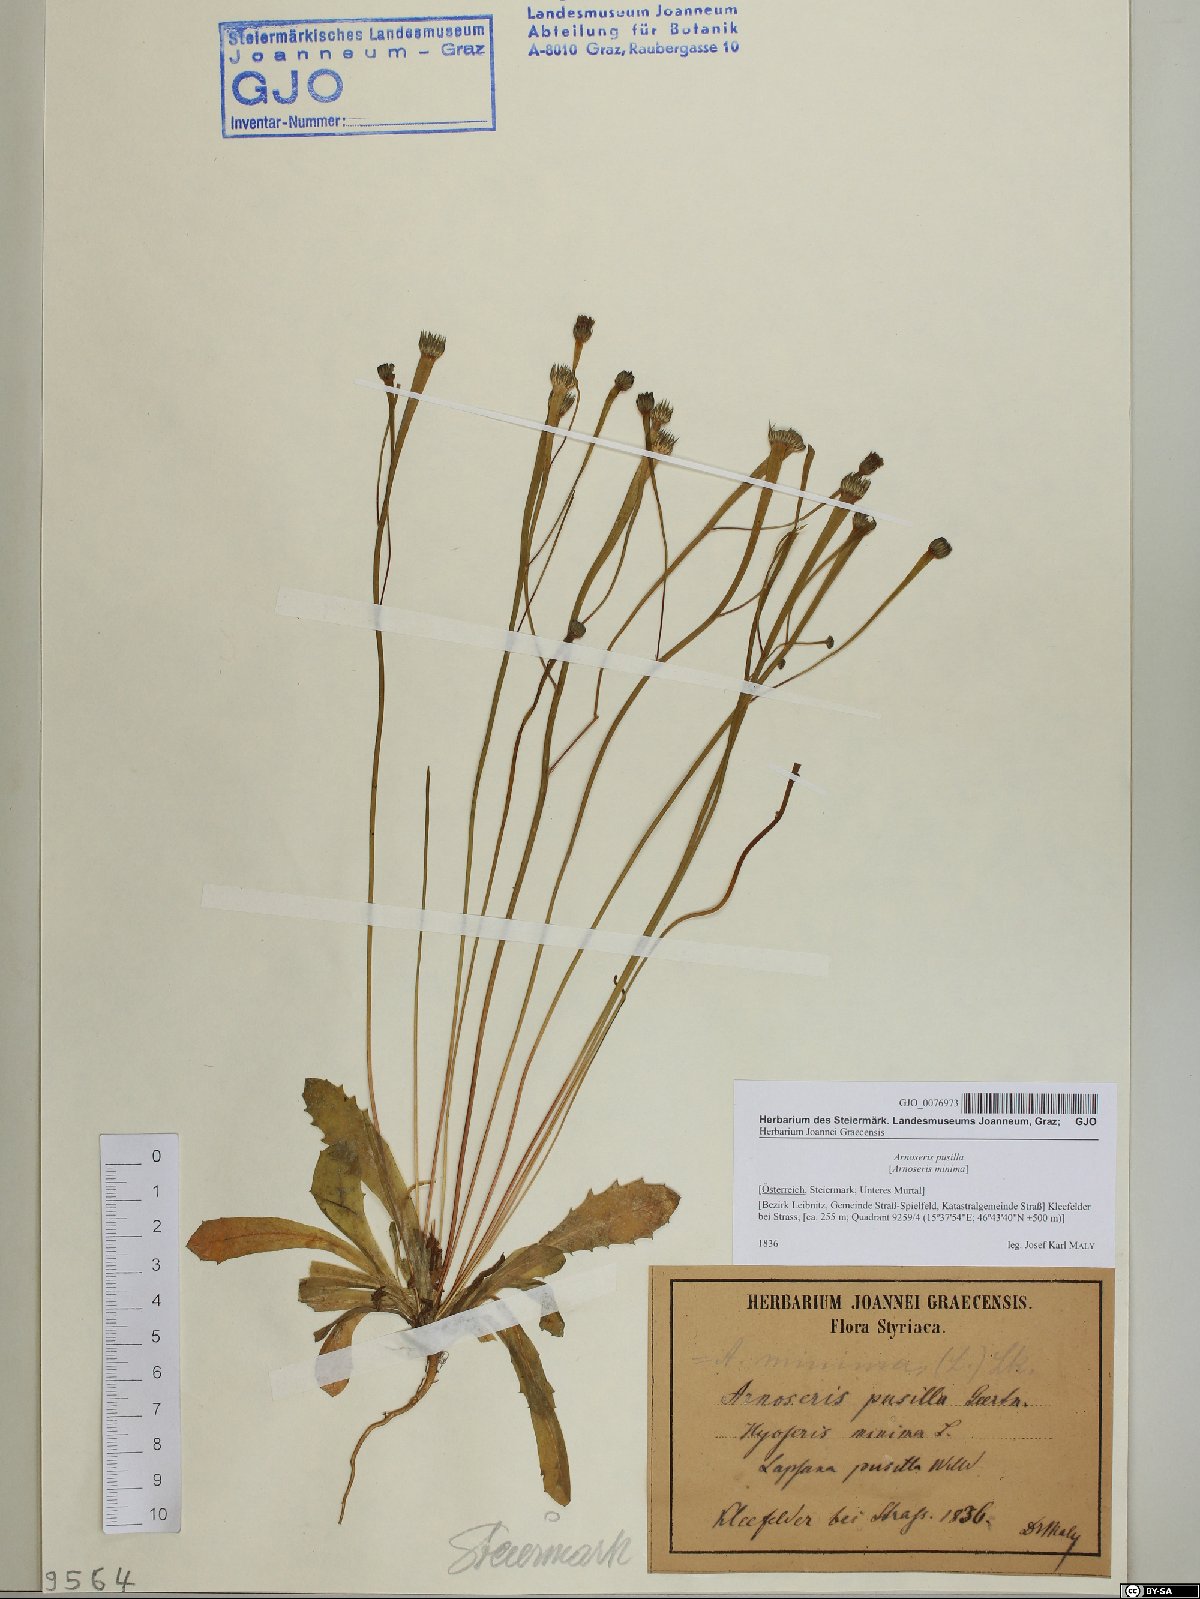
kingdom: Plantae
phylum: Tracheophyta
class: Magnoliopsida
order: Asterales
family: Asteraceae
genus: Arnoseris
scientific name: Arnoseris minima
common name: Lamb's succory
